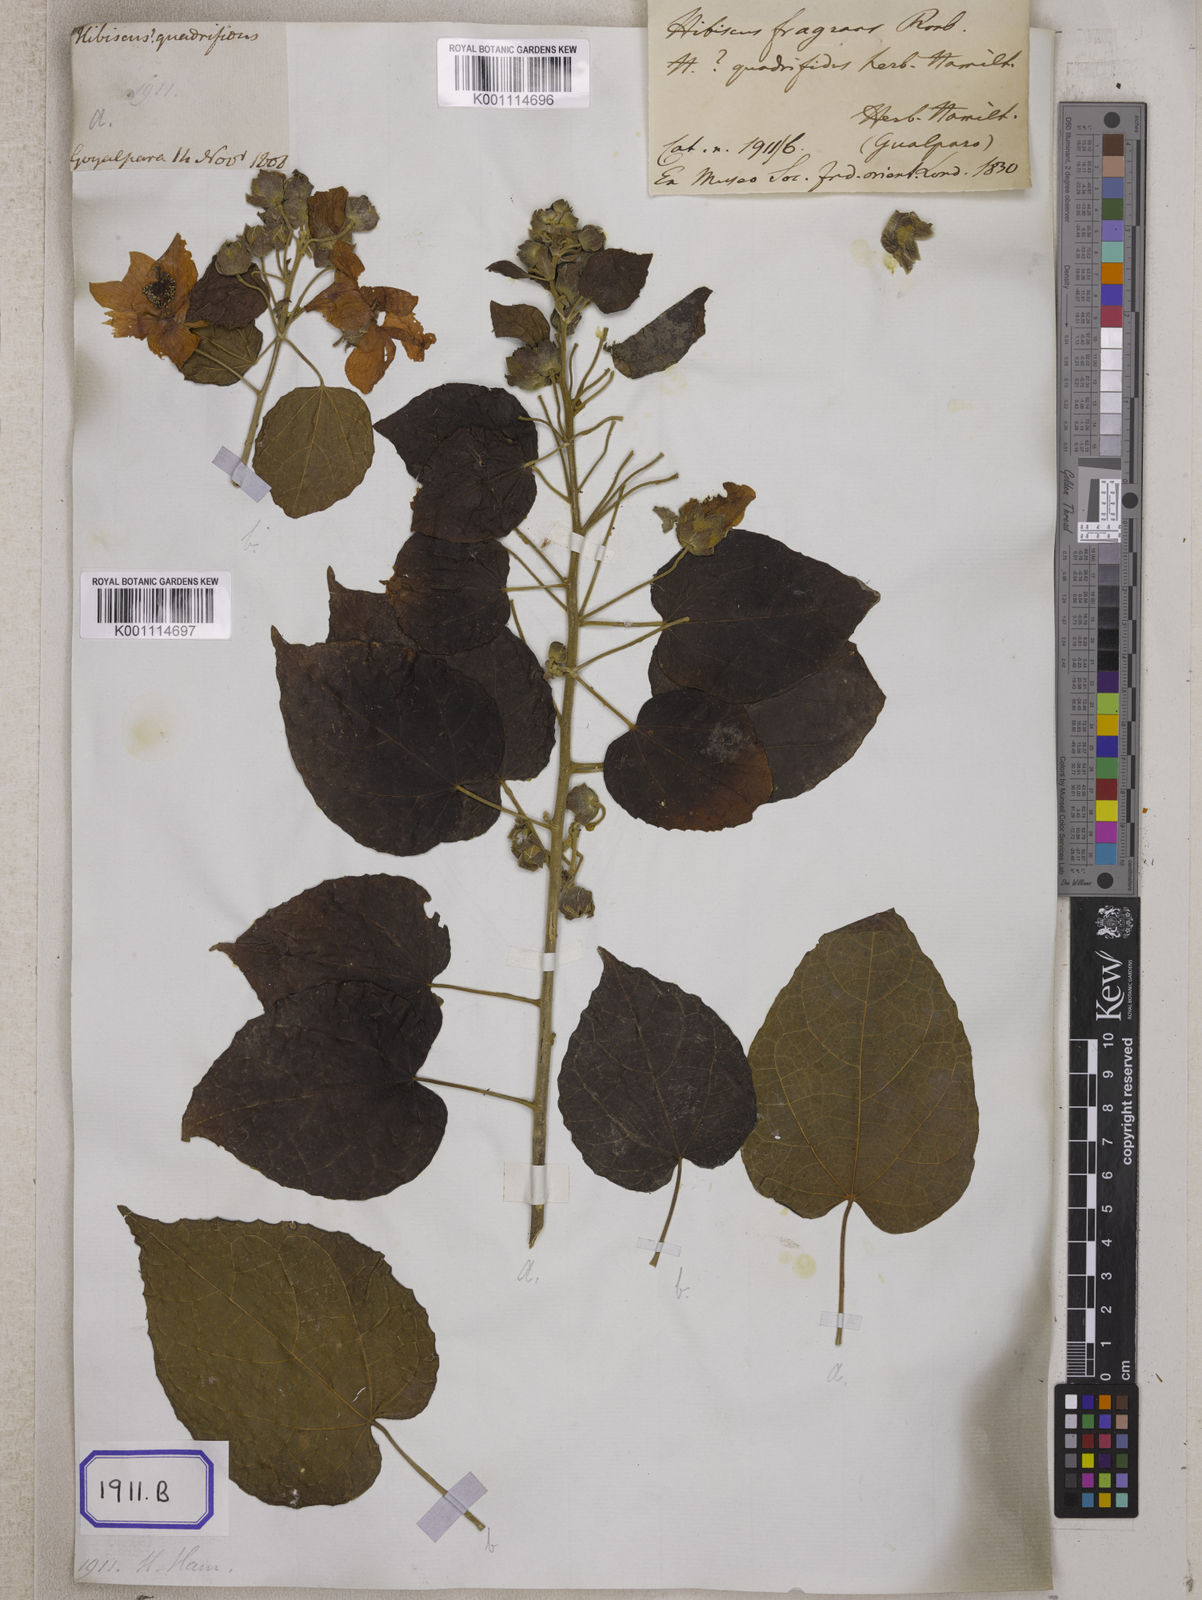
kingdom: Plantae
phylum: Tracheophyta
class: Magnoliopsida
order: Malvales
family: Malvaceae
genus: Hibiscus
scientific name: Hibiscus fragrans
